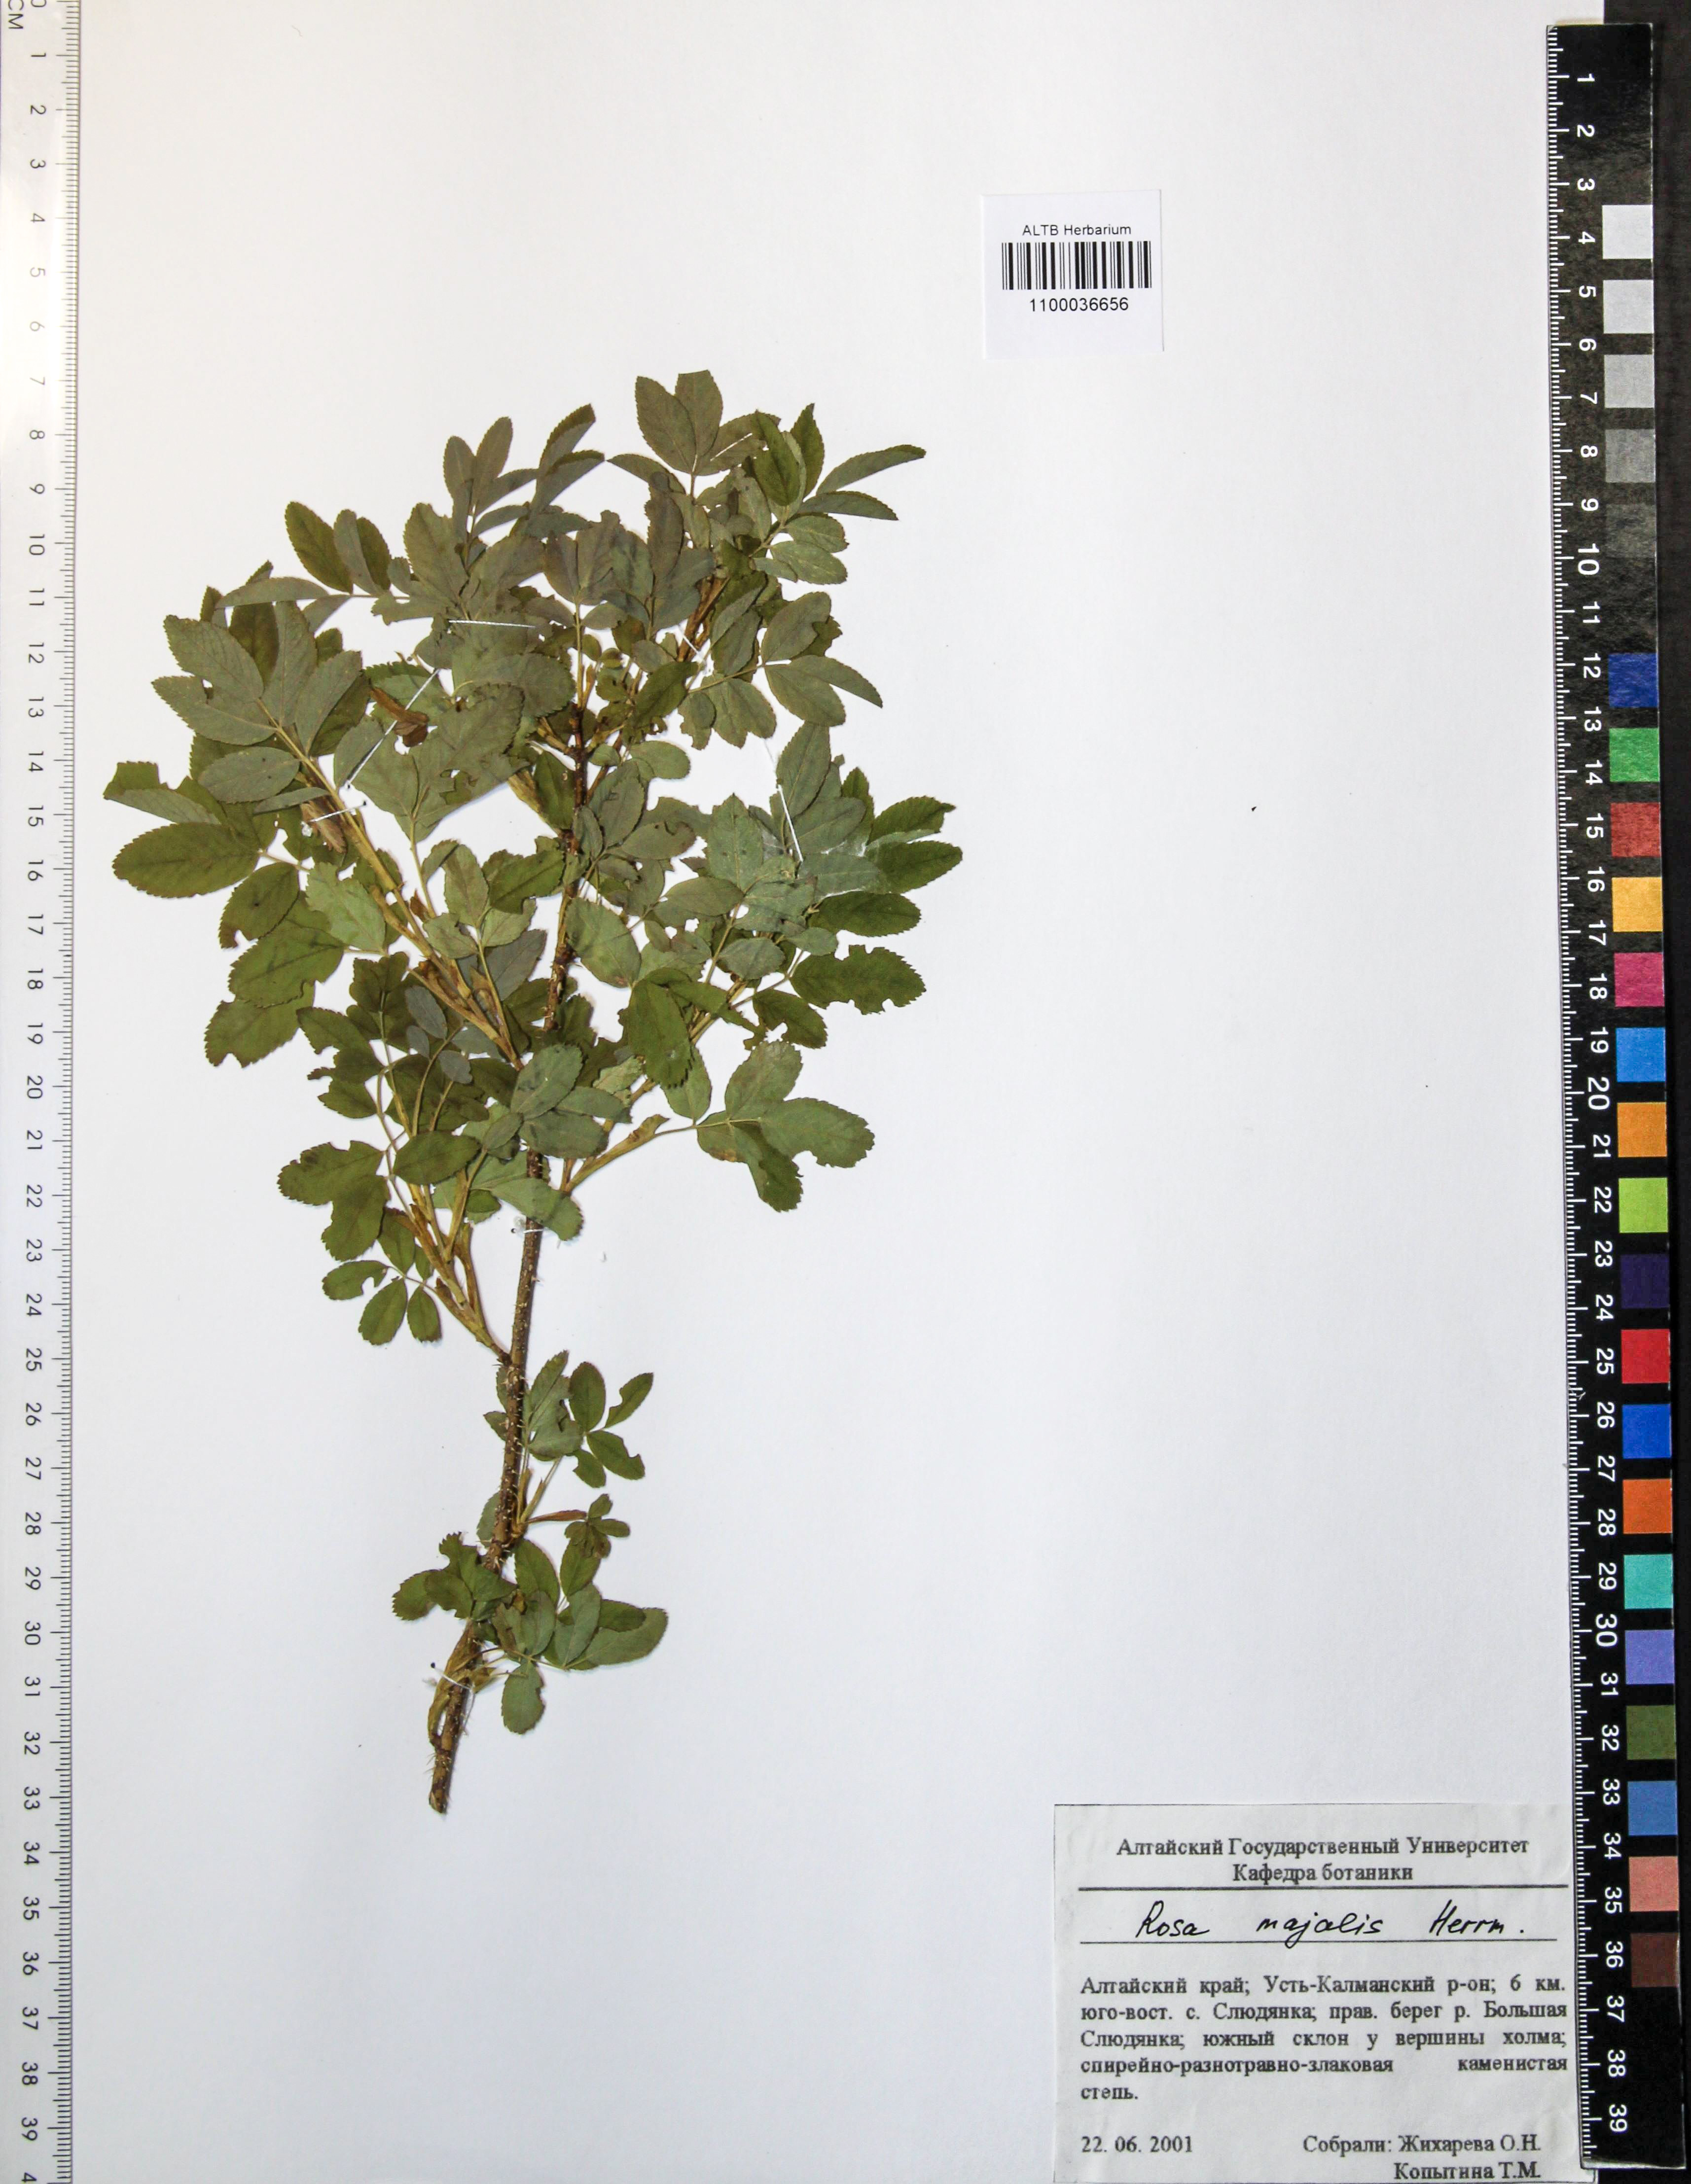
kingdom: Plantae
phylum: Tracheophyta
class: Magnoliopsida
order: Rosales
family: Rosaceae
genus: Rosa
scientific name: Rosa majalis
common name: Cinnamon rose
